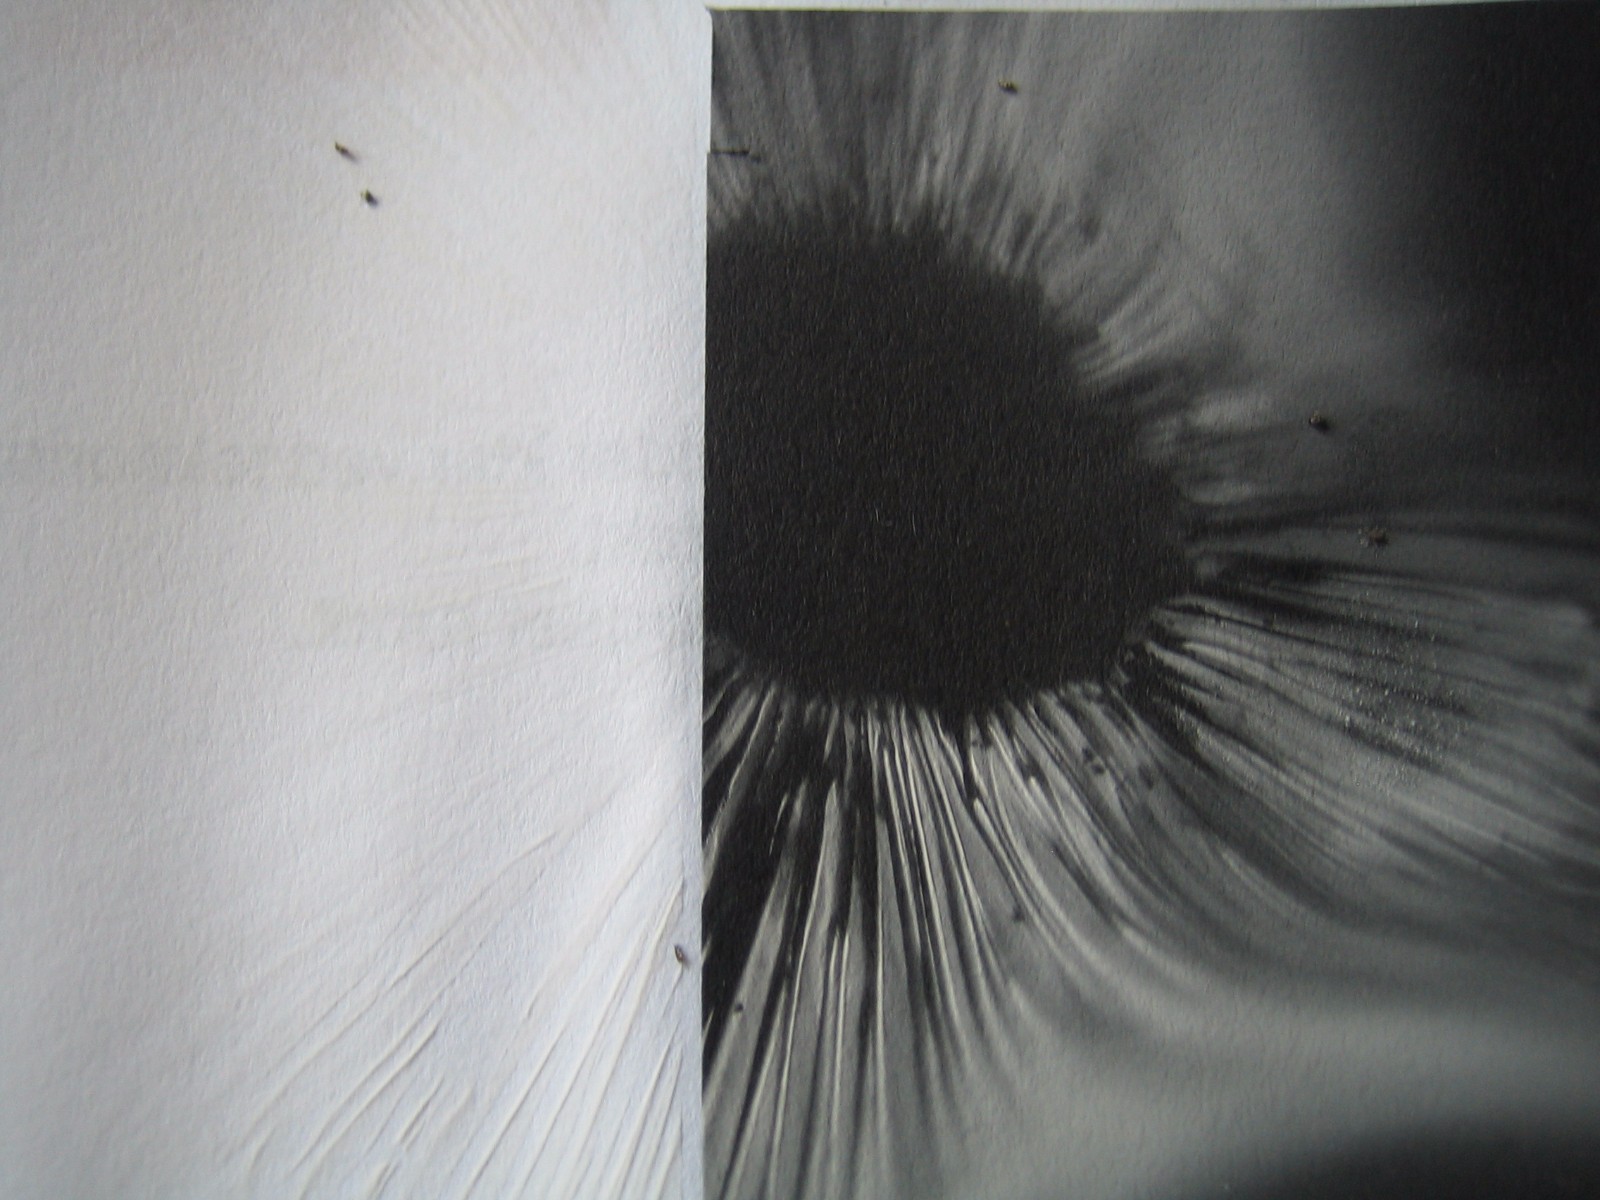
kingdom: Fungi
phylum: Basidiomycota
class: Agaricomycetes
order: Russulales
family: Russulaceae
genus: Russula
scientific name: Russula cyanoxantha
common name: broget skørhat
